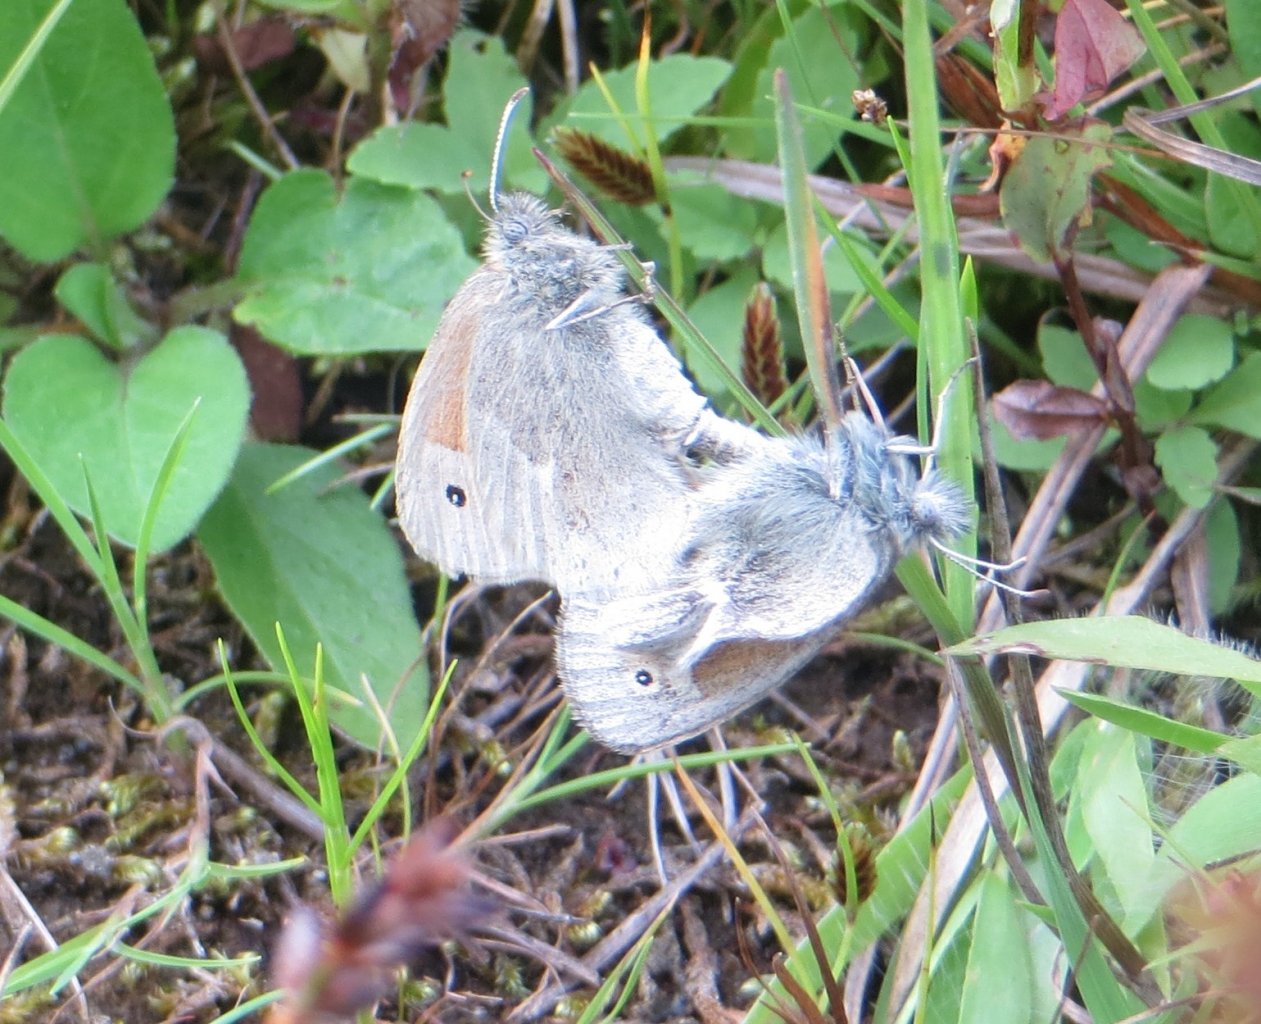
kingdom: Animalia
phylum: Arthropoda
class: Insecta
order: Lepidoptera
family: Nymphalidae
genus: Coenonympha
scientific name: Coenonympha tullia
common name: Large Heath
